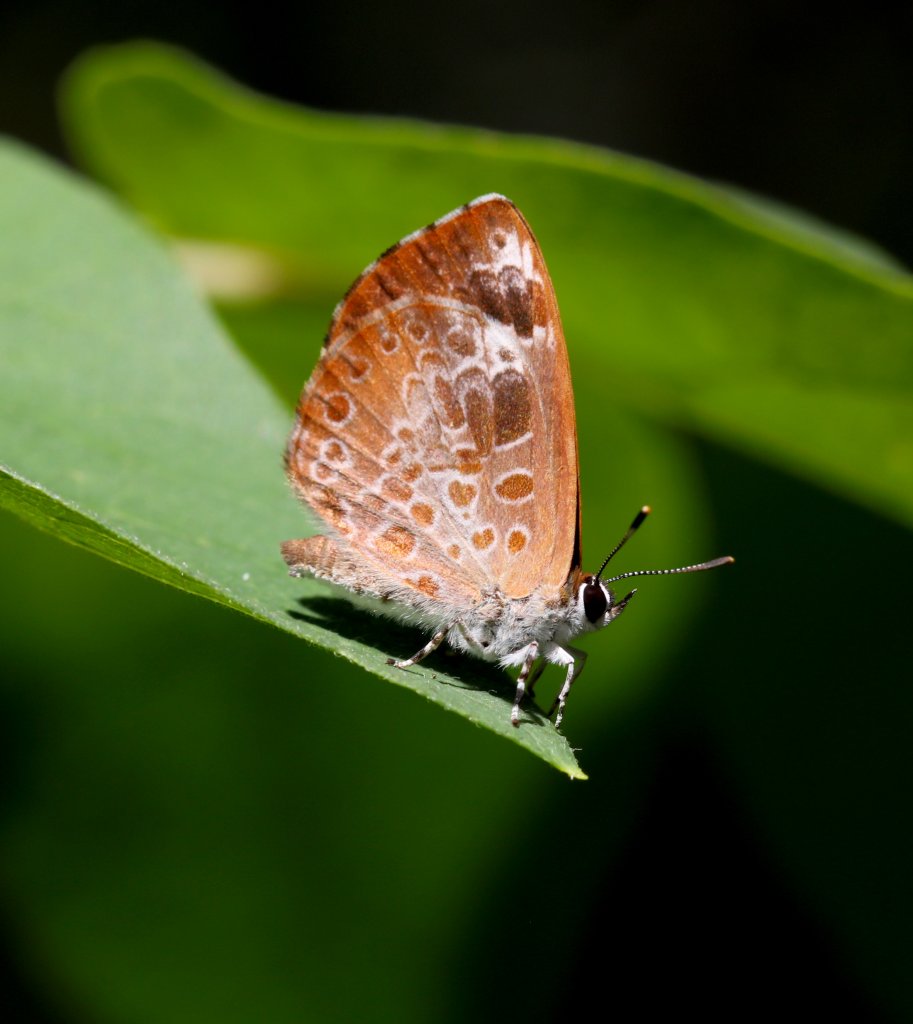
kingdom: Animalia
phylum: Arthropoda
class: Insecta
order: Lepidoptera
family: Lycaenidae
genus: Feniseca
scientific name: Feniseca tarquinius
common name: Harvester
